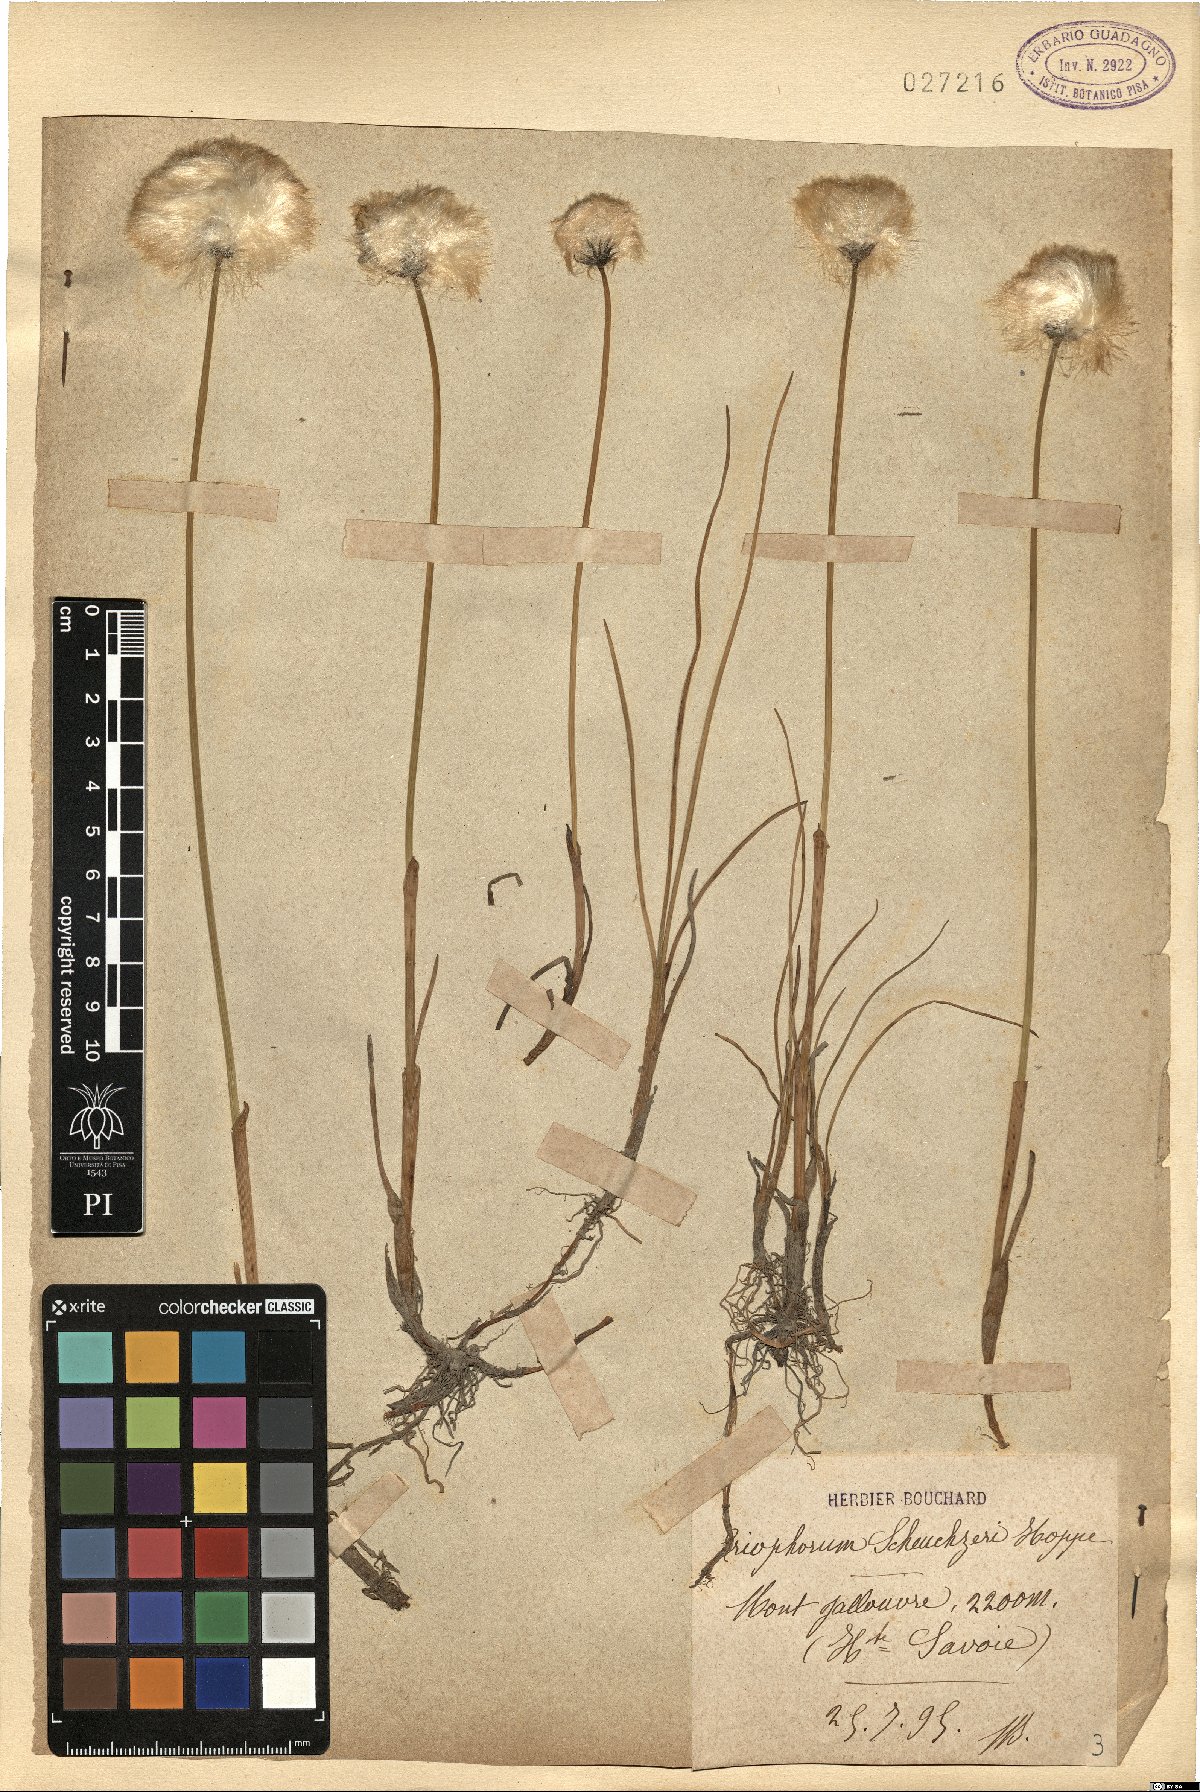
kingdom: Plantae
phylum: Tracheophyta
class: Liliopsida
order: Poales
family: Cyperaceae
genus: Eriophorum
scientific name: Eriophorum scheuchzeri
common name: Scheuchzer's cottongrass
